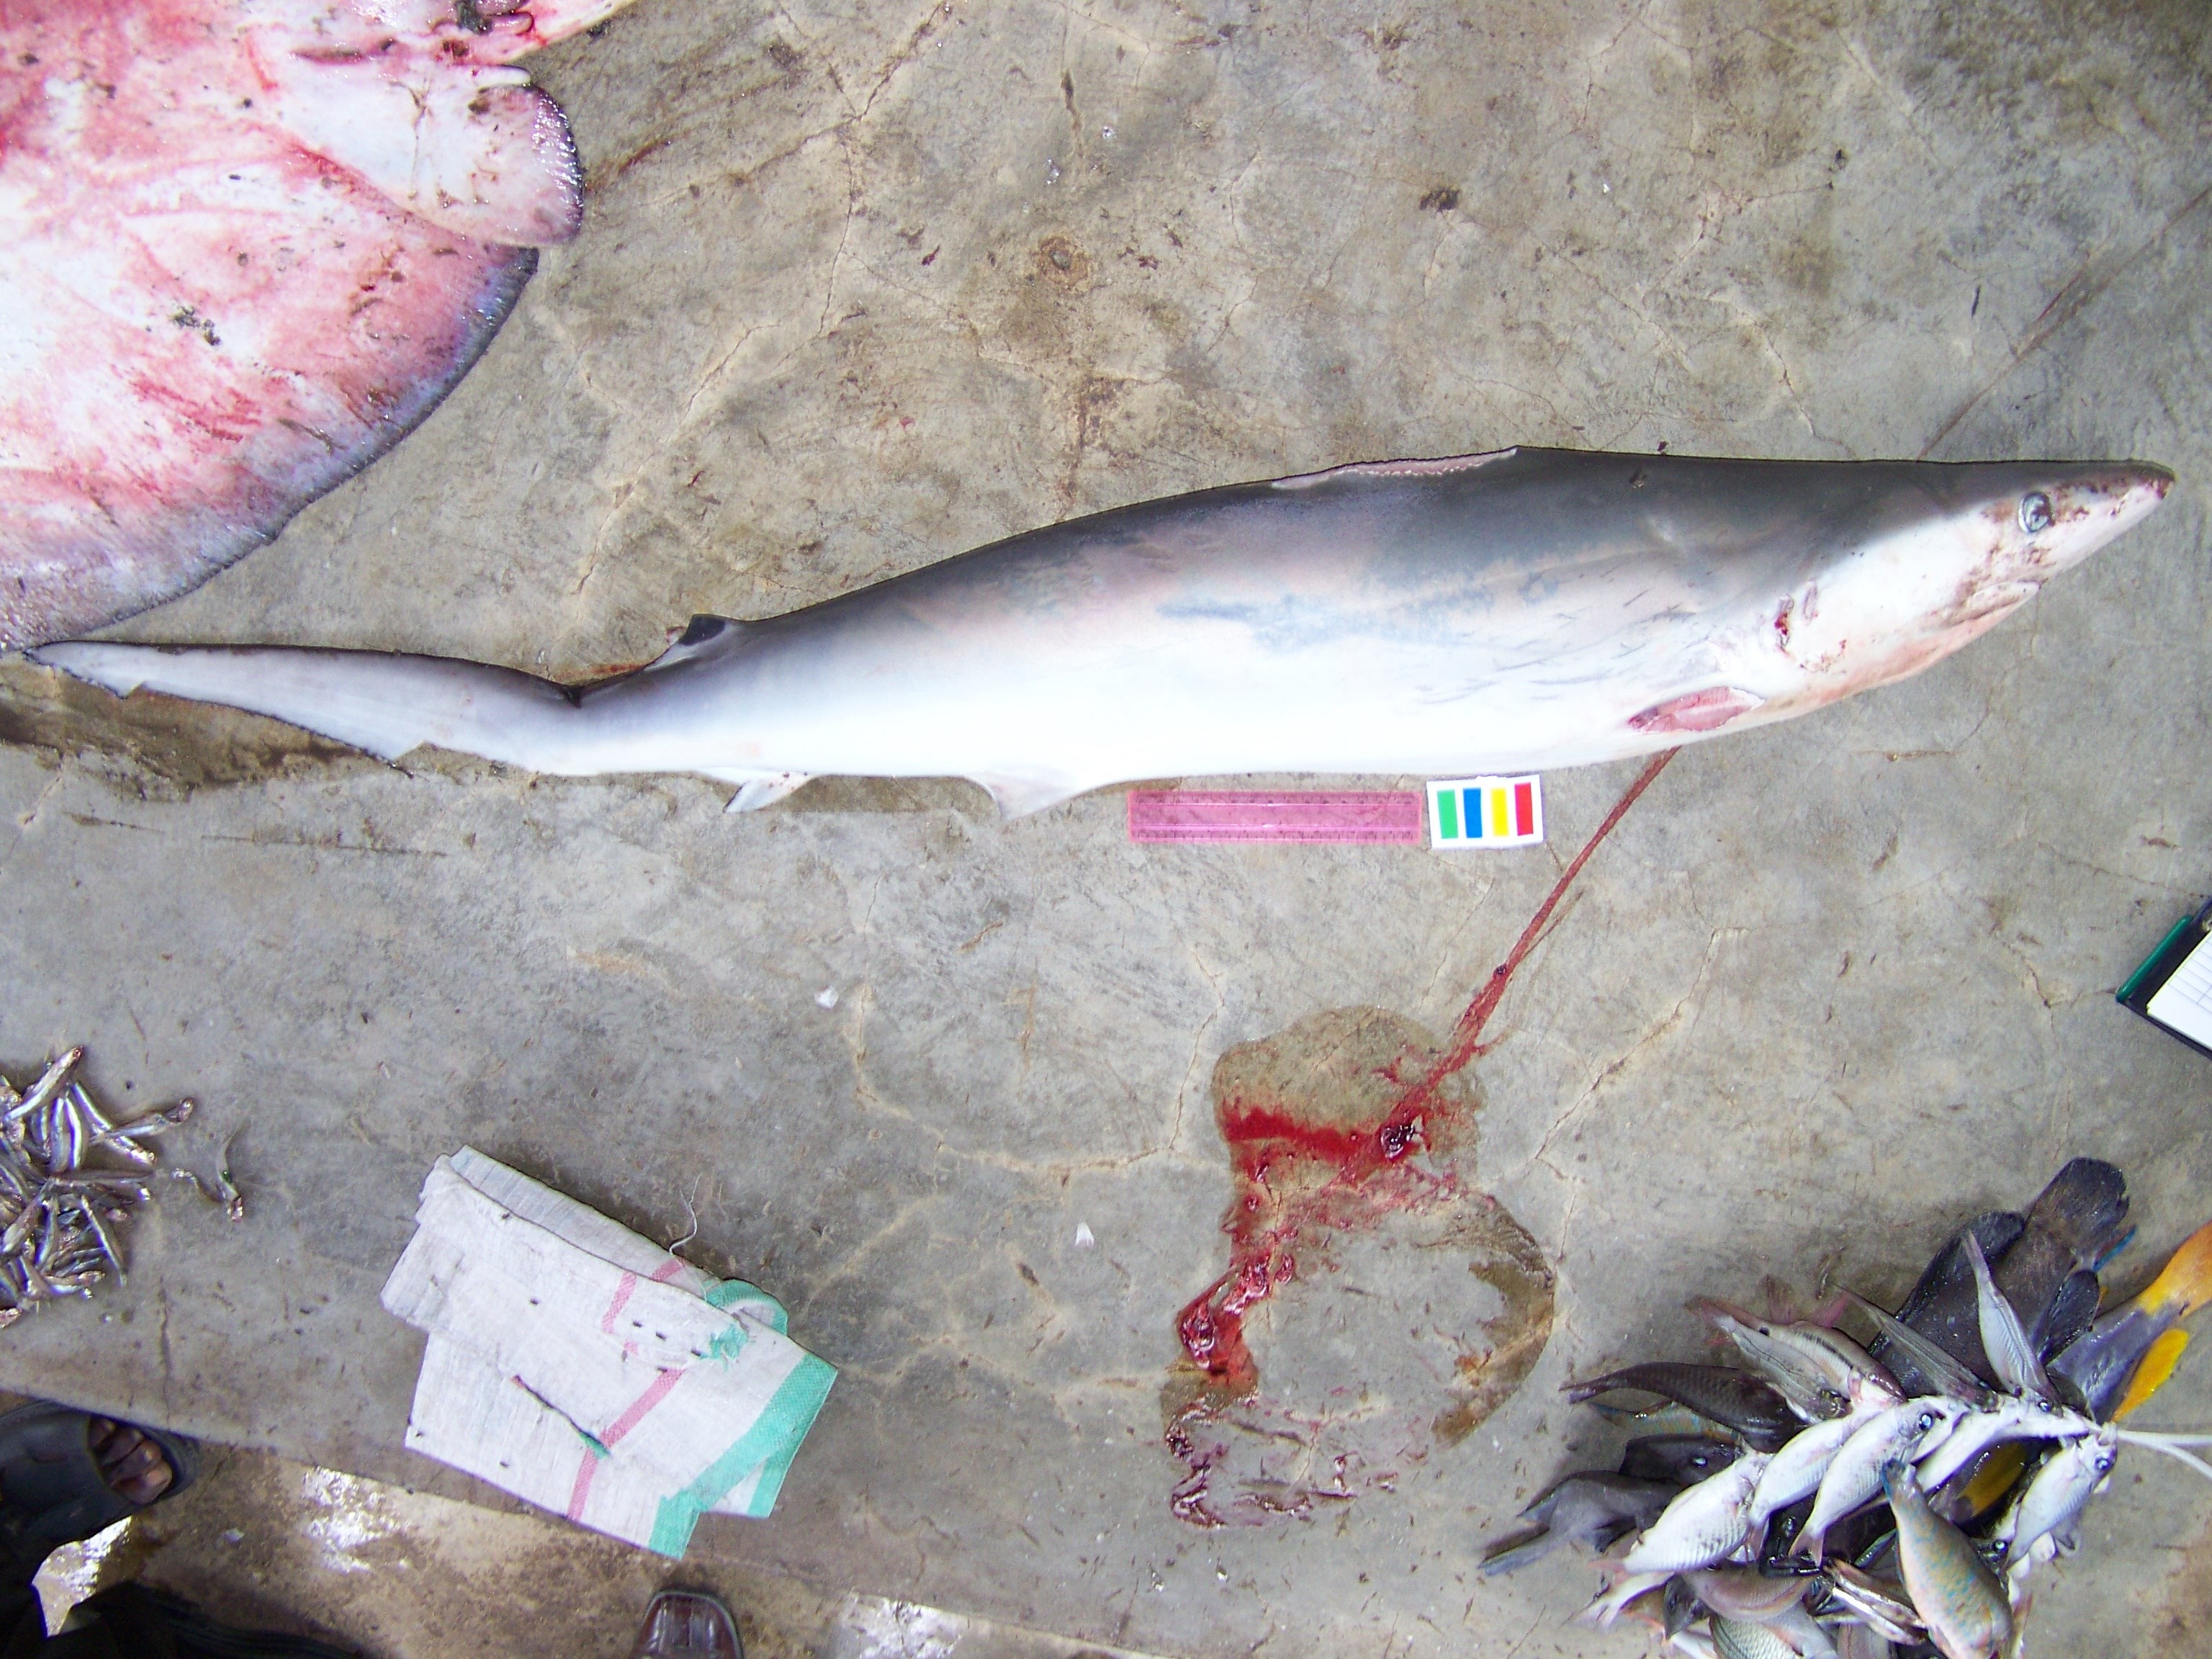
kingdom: Animalia
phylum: Chordata
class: Elasmobranchii
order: Carcharhiniformes
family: Carcharhinidae
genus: Carcharhinus
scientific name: Carcharhinus
